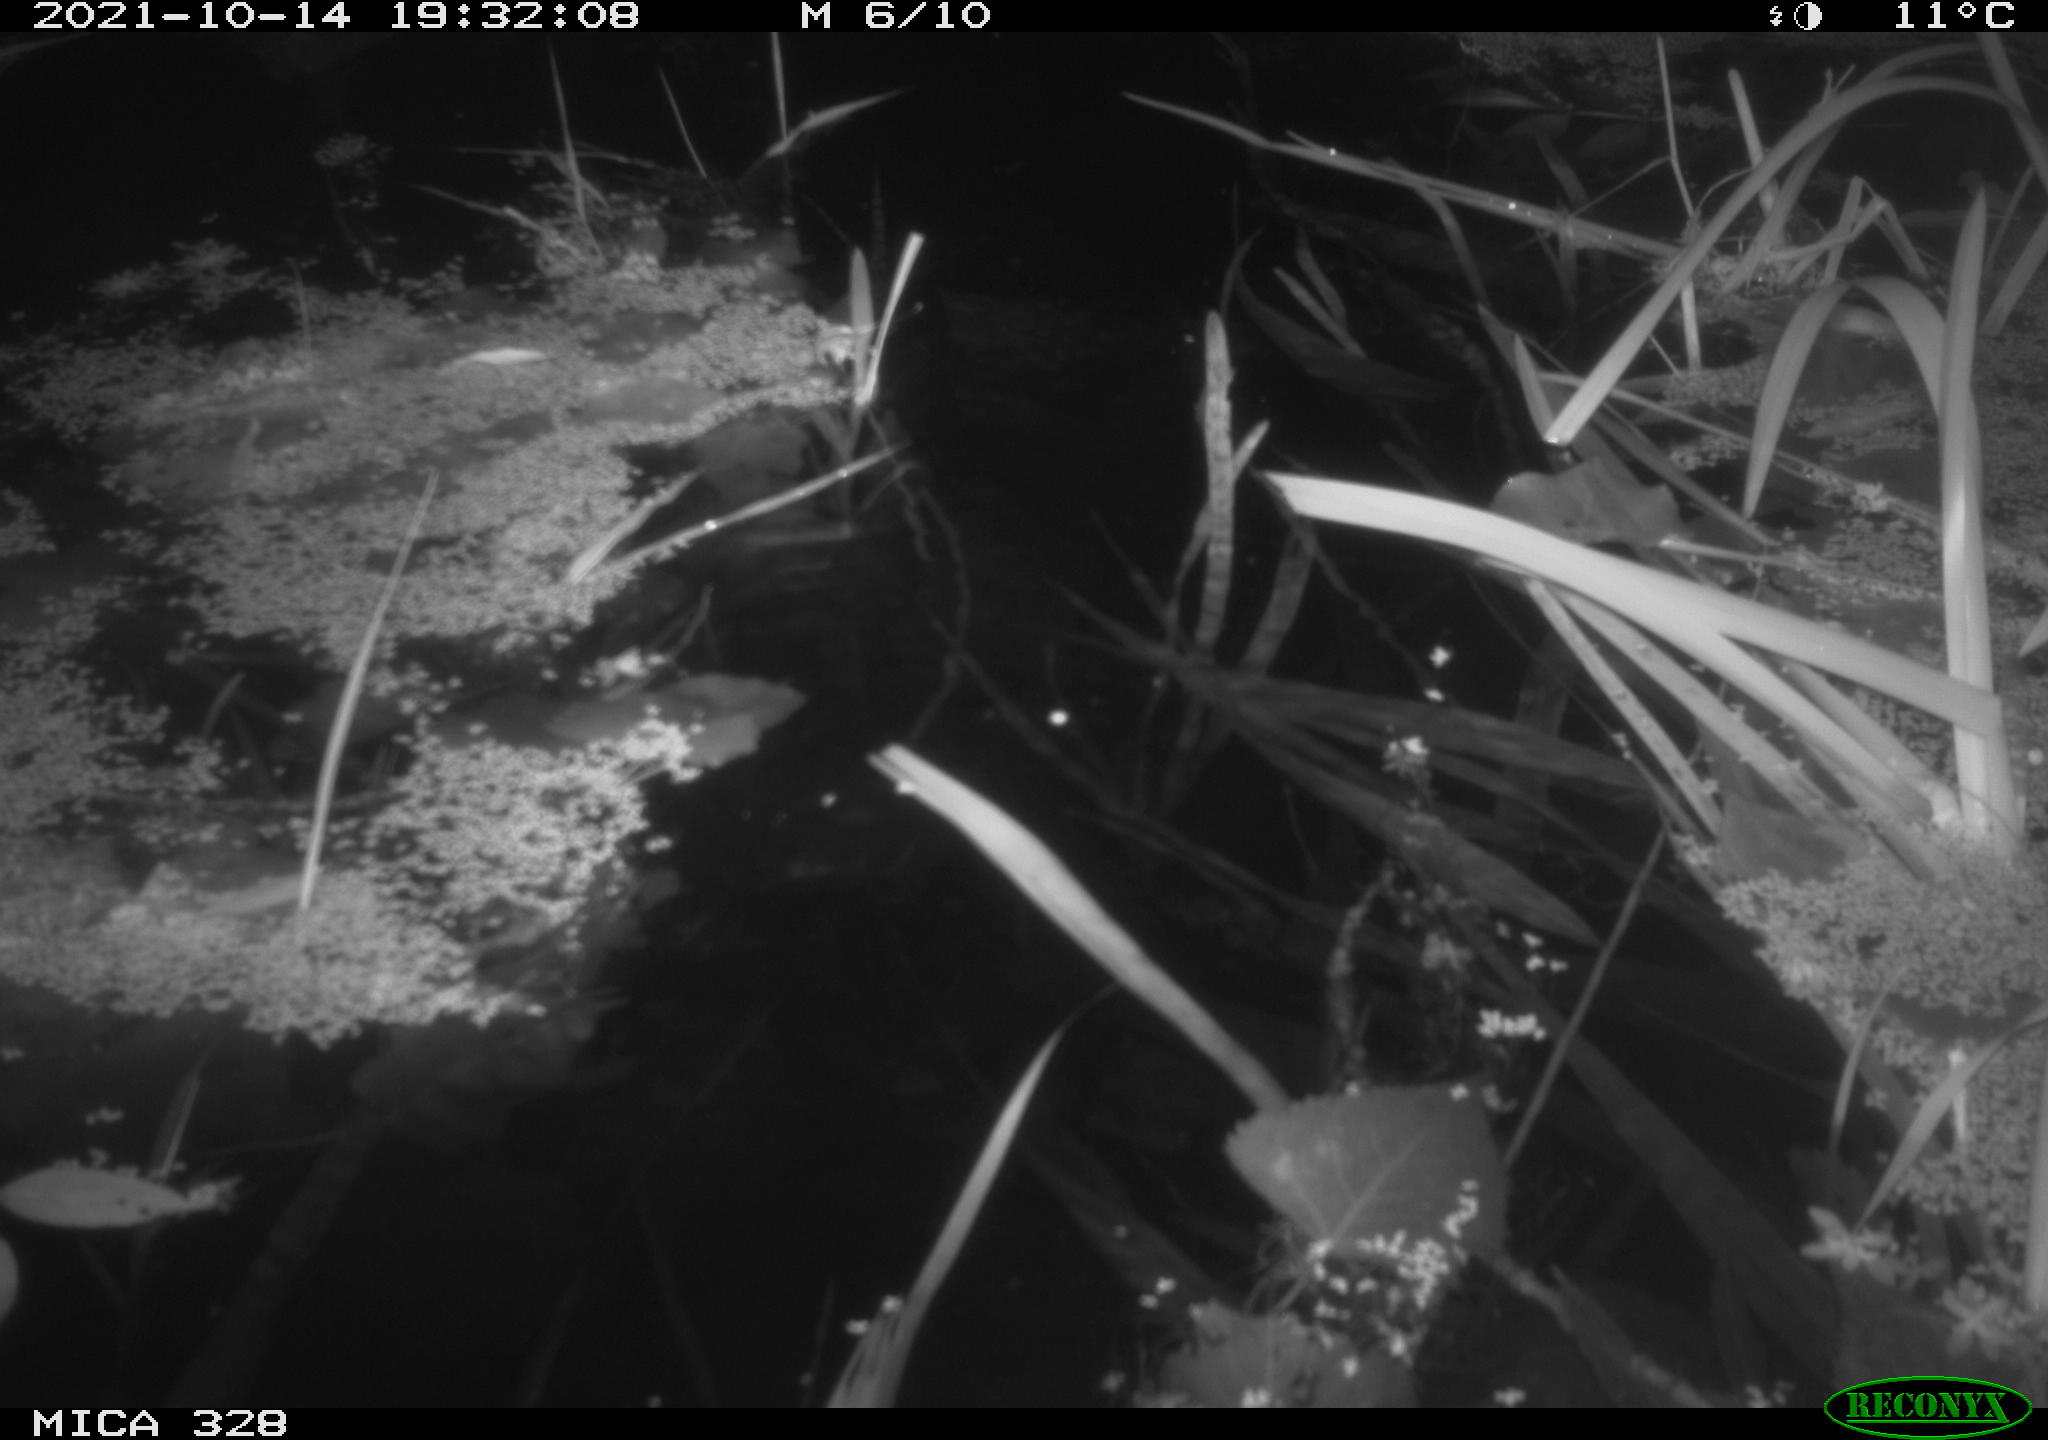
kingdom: Animalia
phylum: Chordata
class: Mammalia
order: Rodentia
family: Cricetidae
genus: Ondatra
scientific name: Ondatra zibethicus
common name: Muskrat
